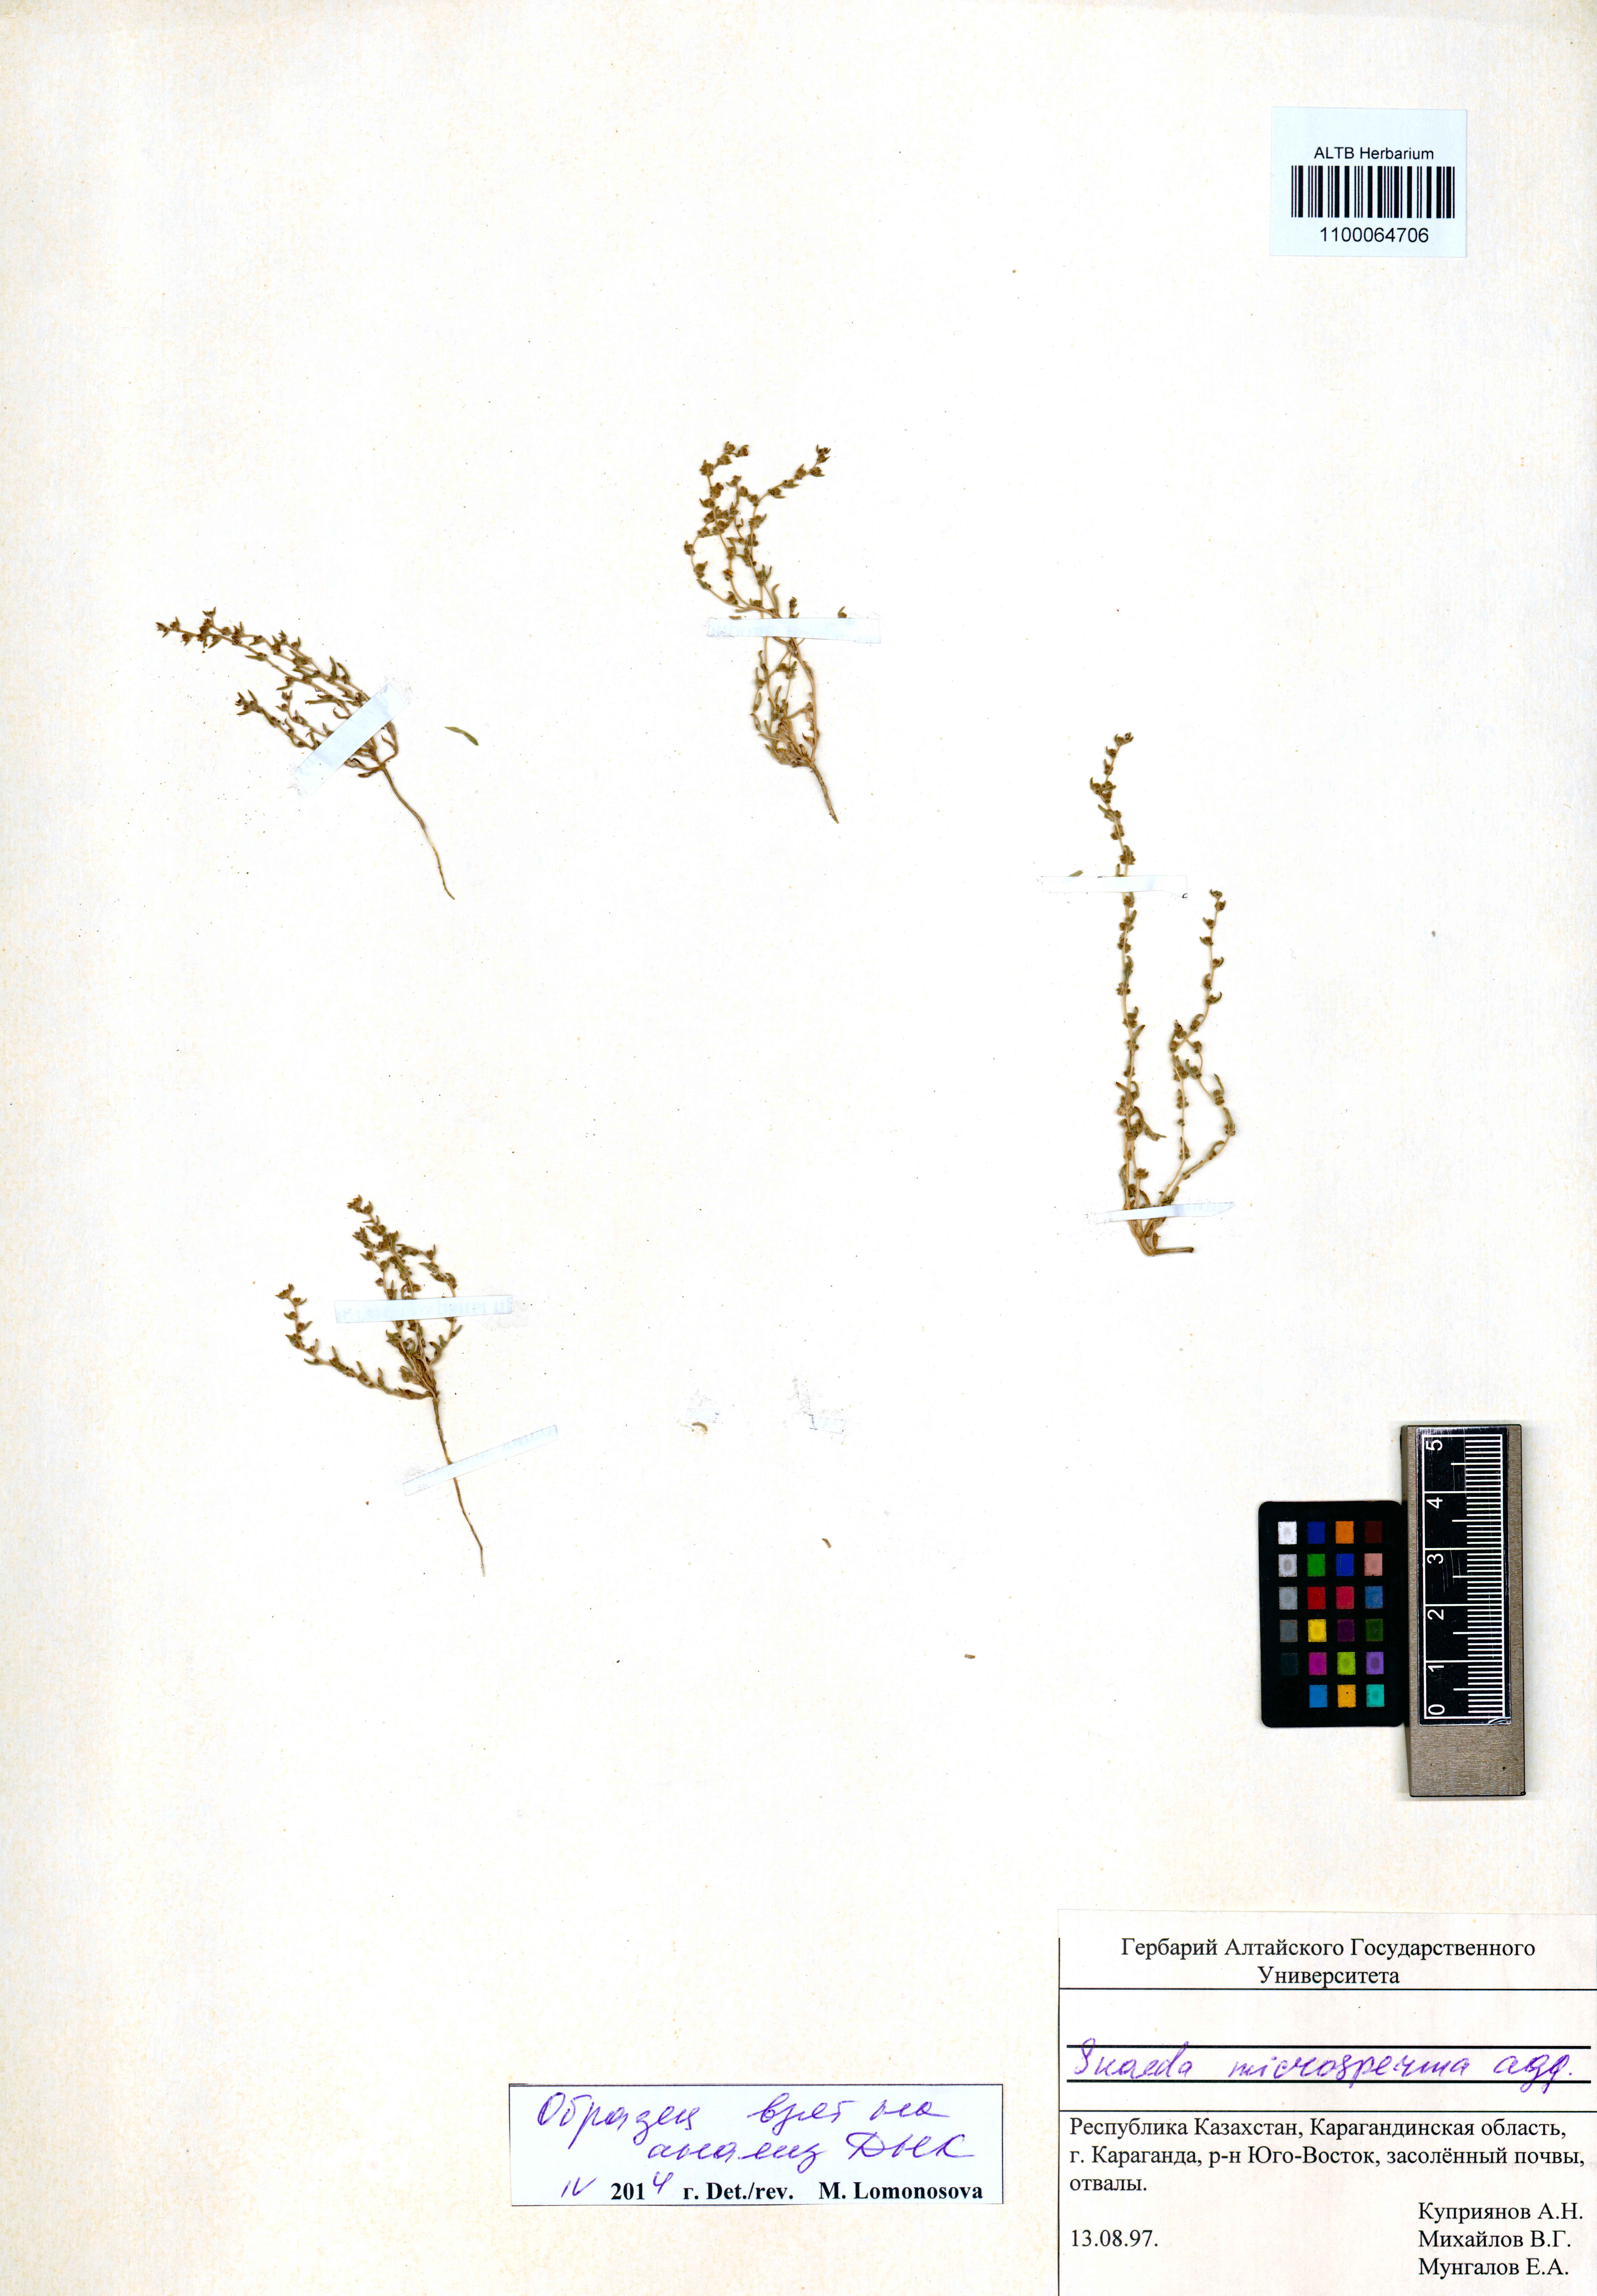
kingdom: Plantae
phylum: Tracheophyta
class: Magnoliopsida
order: Caryophyllales
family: Amaranthaceae
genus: Suaeda
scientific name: Suaeda microsperma
